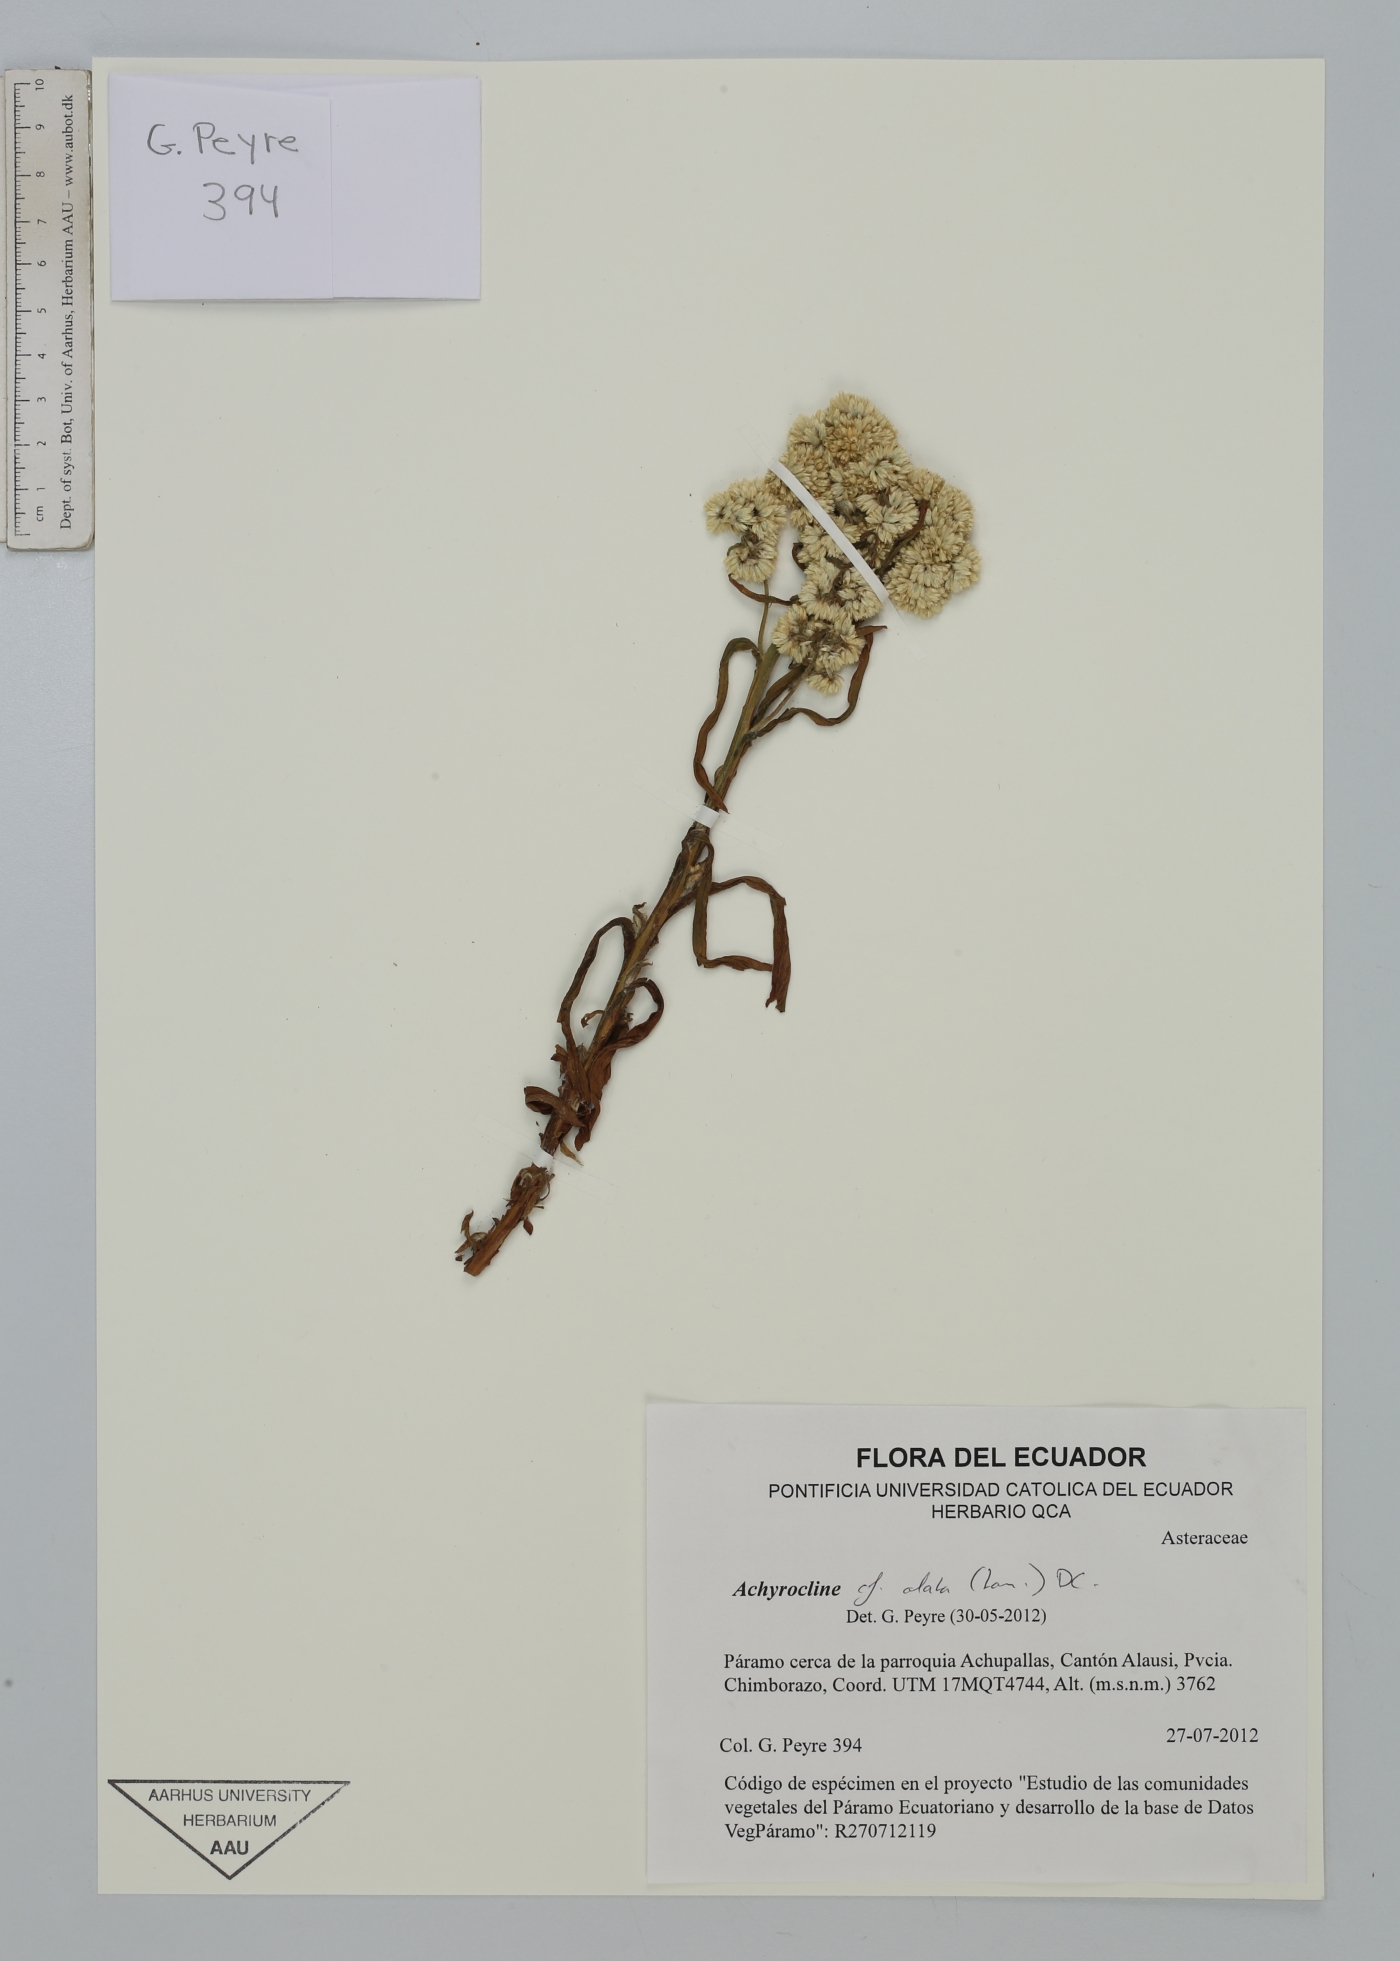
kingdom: Plantae
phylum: Tracheophyta
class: Magnoliopsida
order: Asterales
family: Asteraceae
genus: Achyrocline
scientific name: Achyrocline alata
